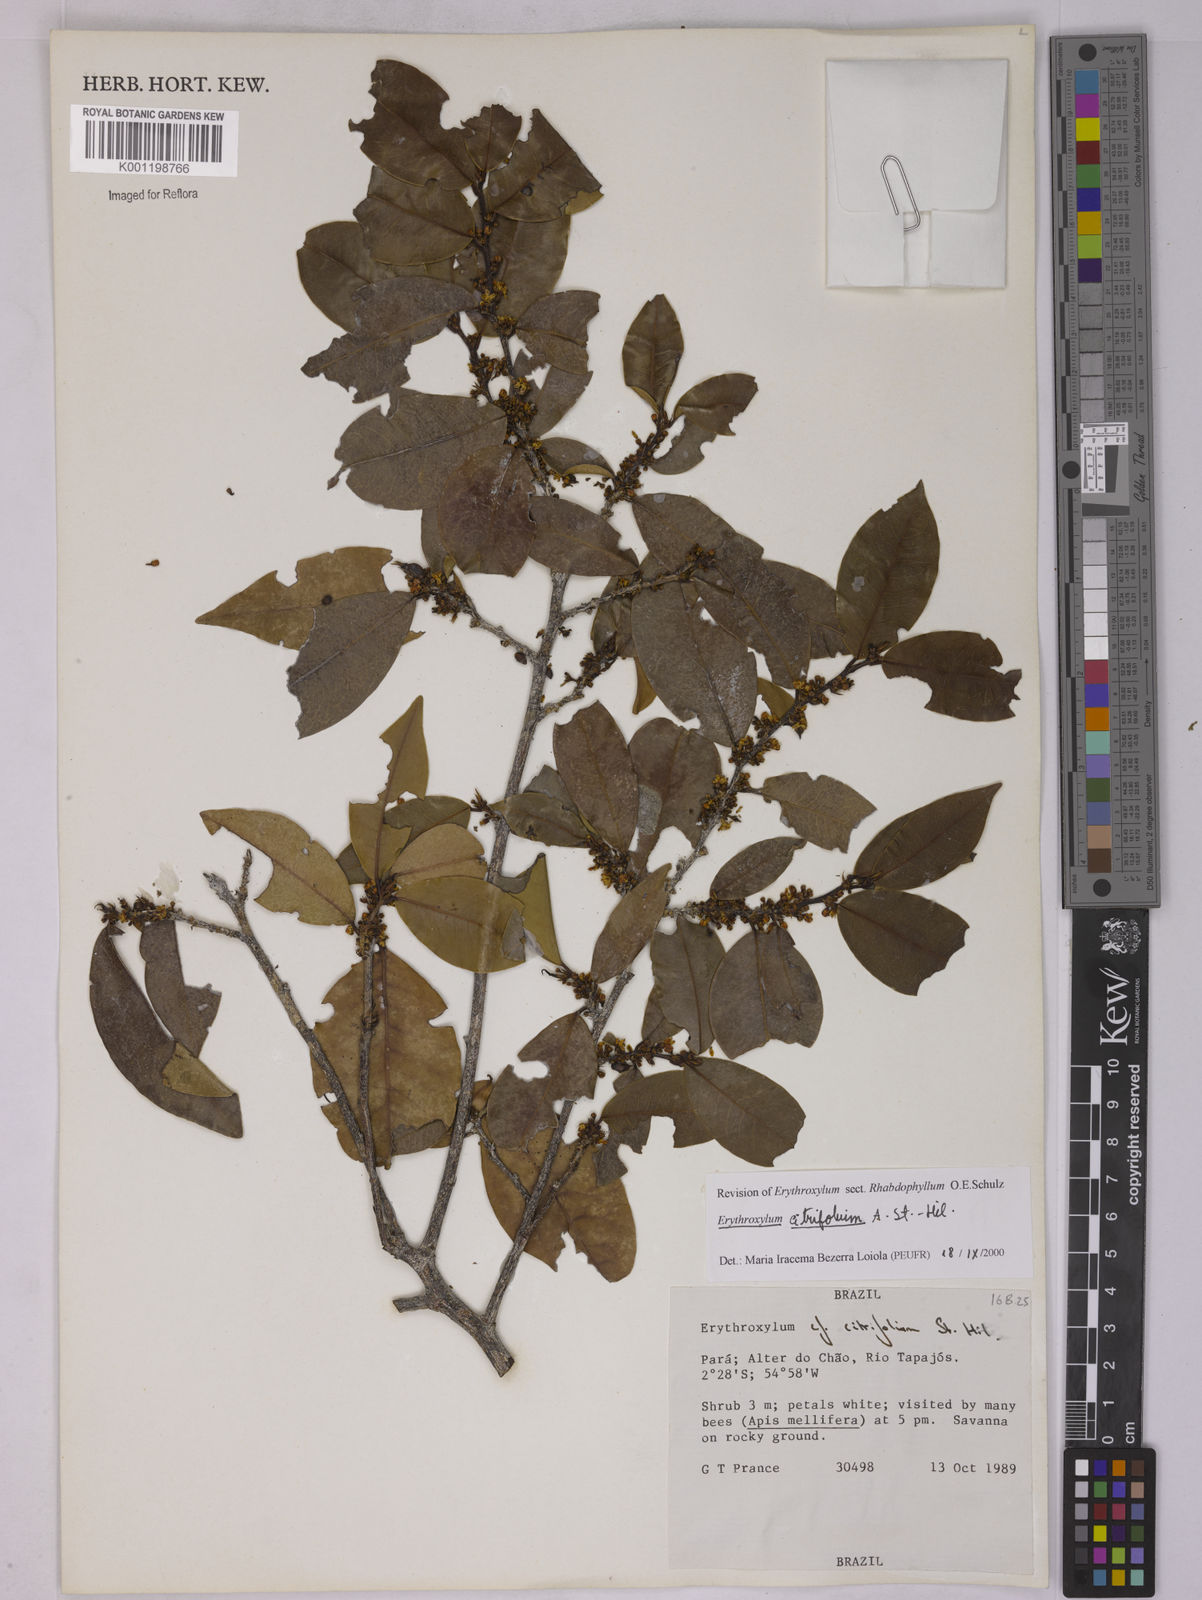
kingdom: Plantae
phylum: Tracheophyta
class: Magnoliopsida
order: Malpighiales
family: Erythroxylaceae
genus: Erythroxylum
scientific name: Erythroxylum citrifolium
